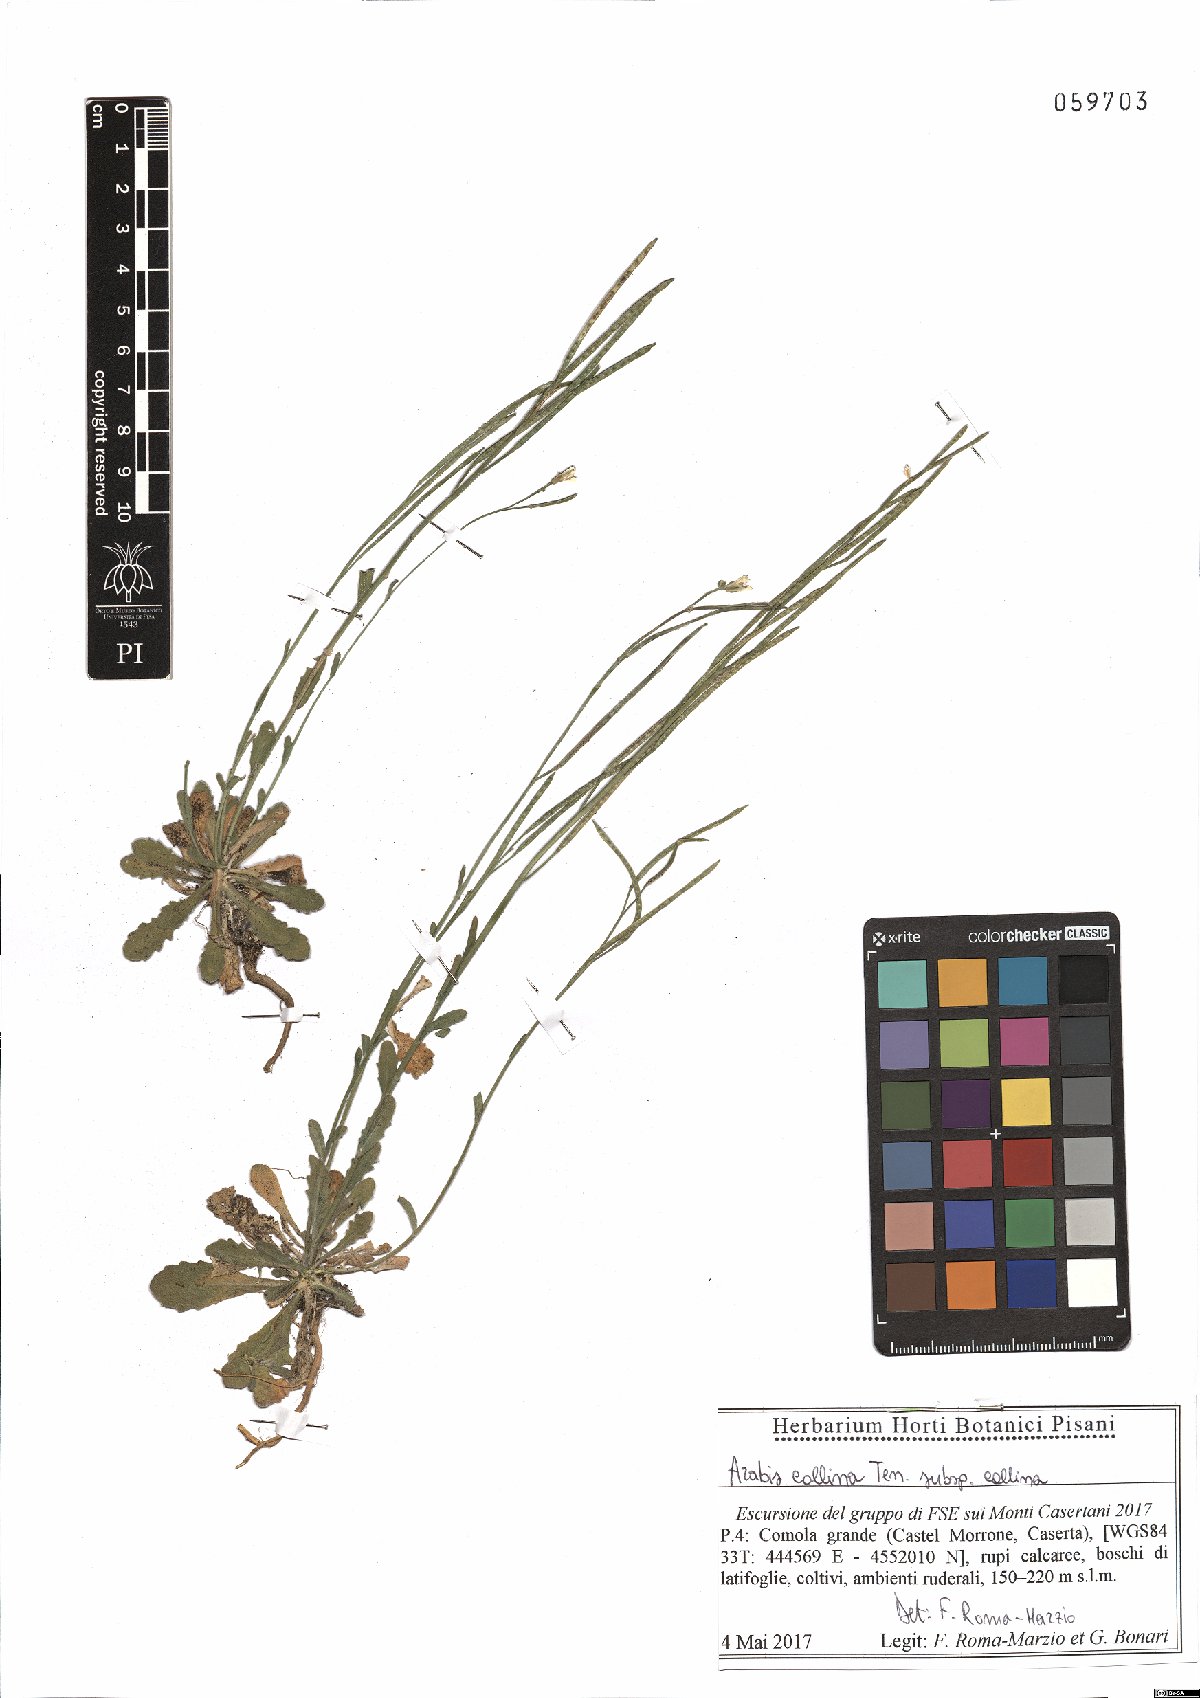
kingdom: Plantae
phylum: Tracheophyta
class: Magnoliopsida
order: Brassicales
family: Brassicaceae
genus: Arabis
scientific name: Arabis collina
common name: Rosy cress
